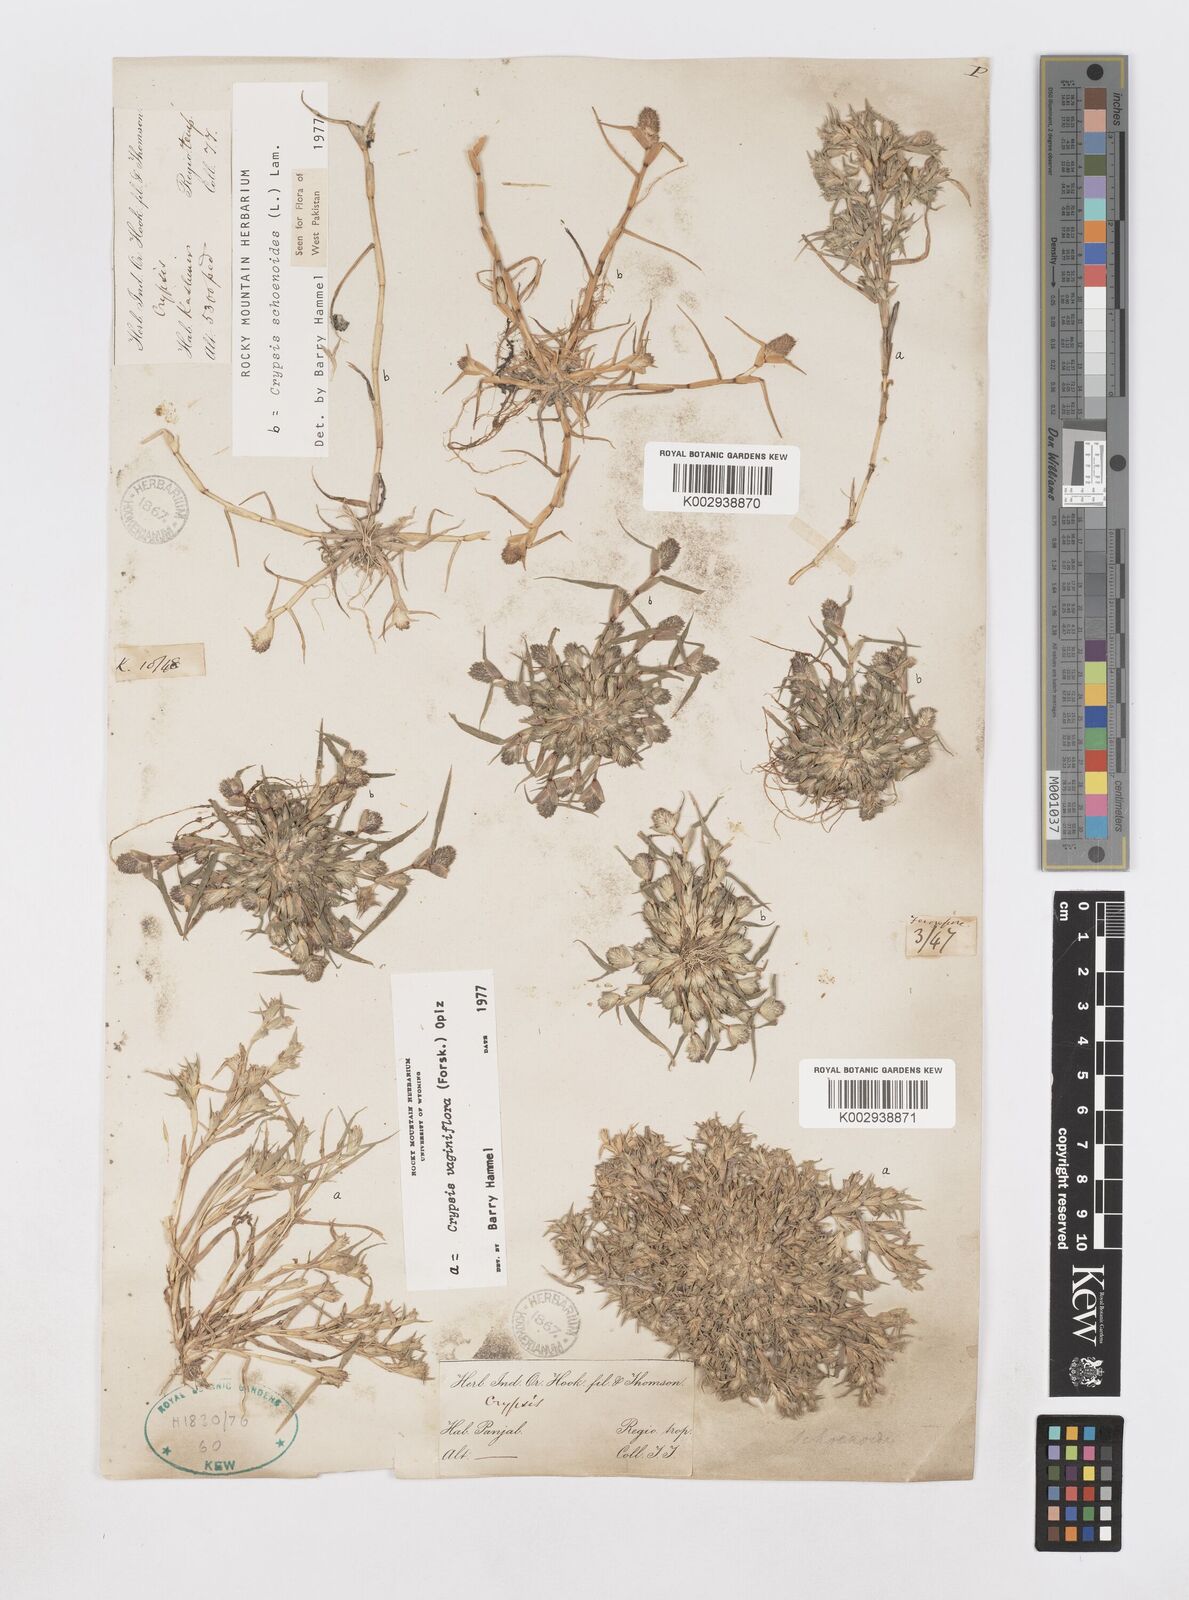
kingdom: Plantae
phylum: Tracheophyta
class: Liliopsida
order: Poales
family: Poaceae
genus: Sporobolus
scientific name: Sporobolus niliacus
